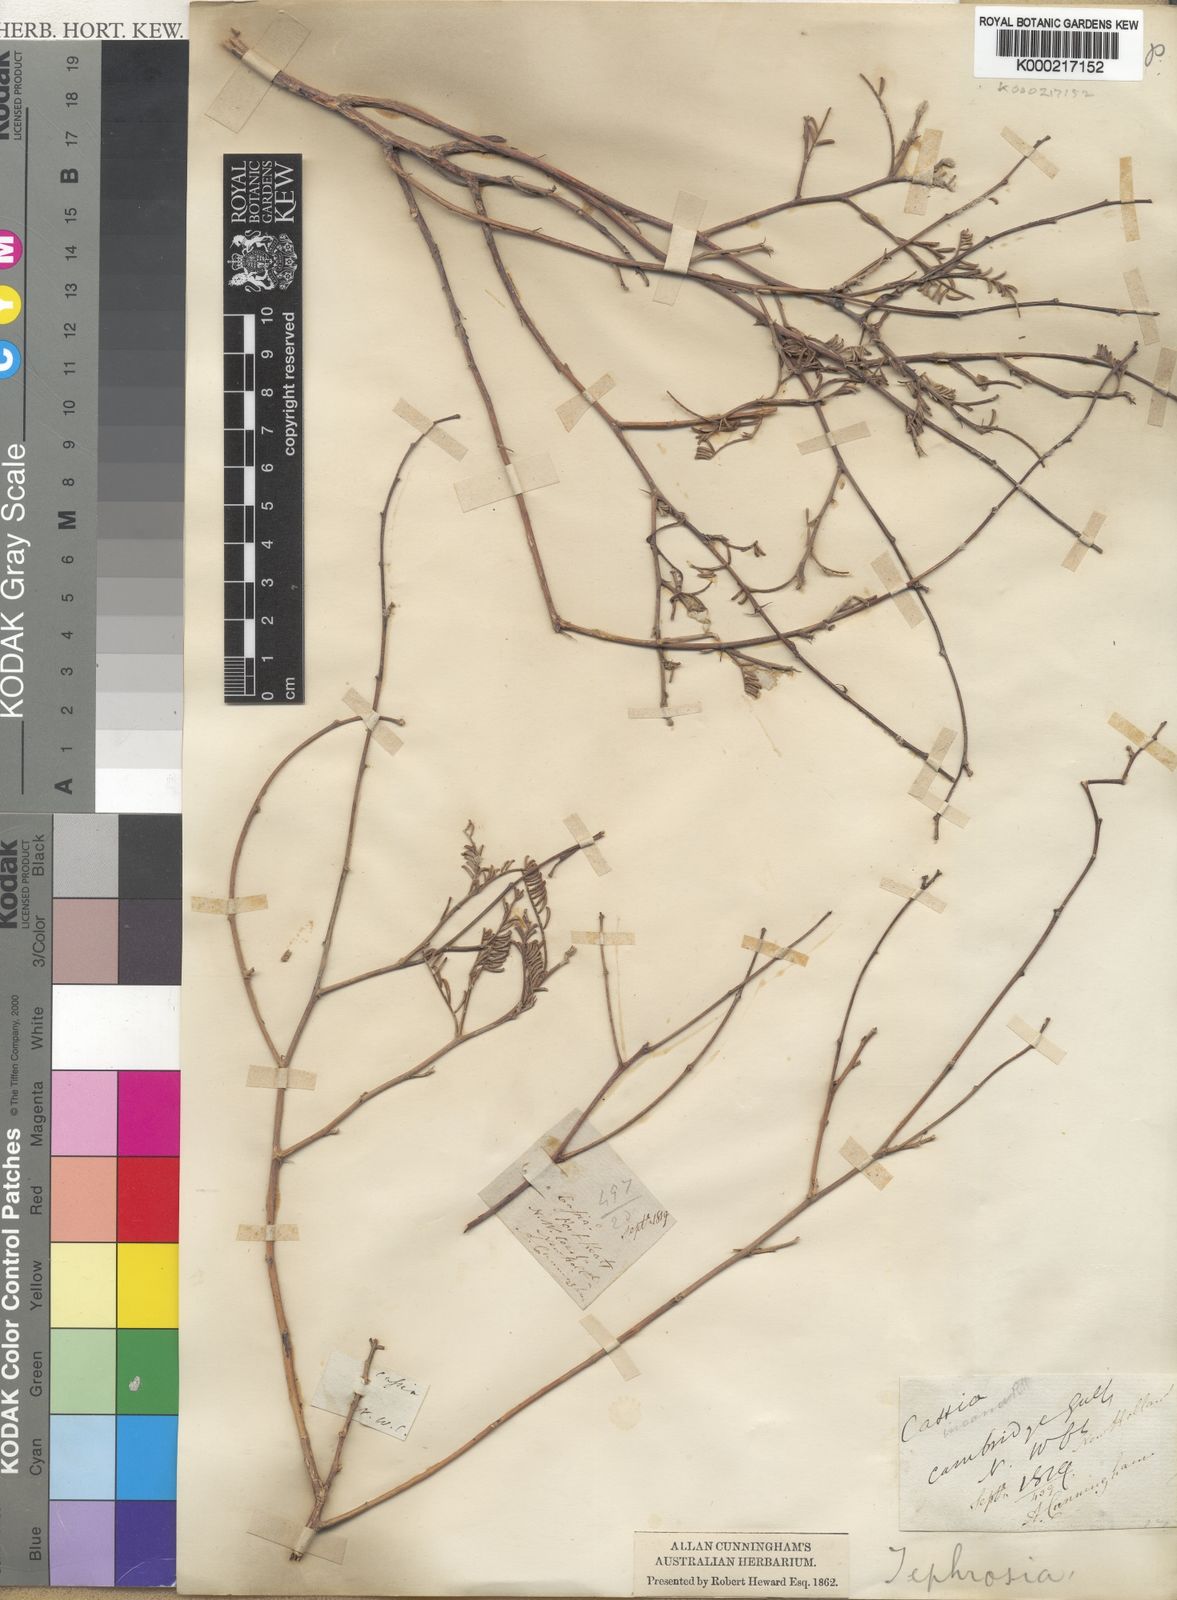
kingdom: Plantae
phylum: Tracheophyta
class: Magnoliopsida
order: Fabales
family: Fabaceae
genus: Tephrosia
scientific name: Tephrosia
